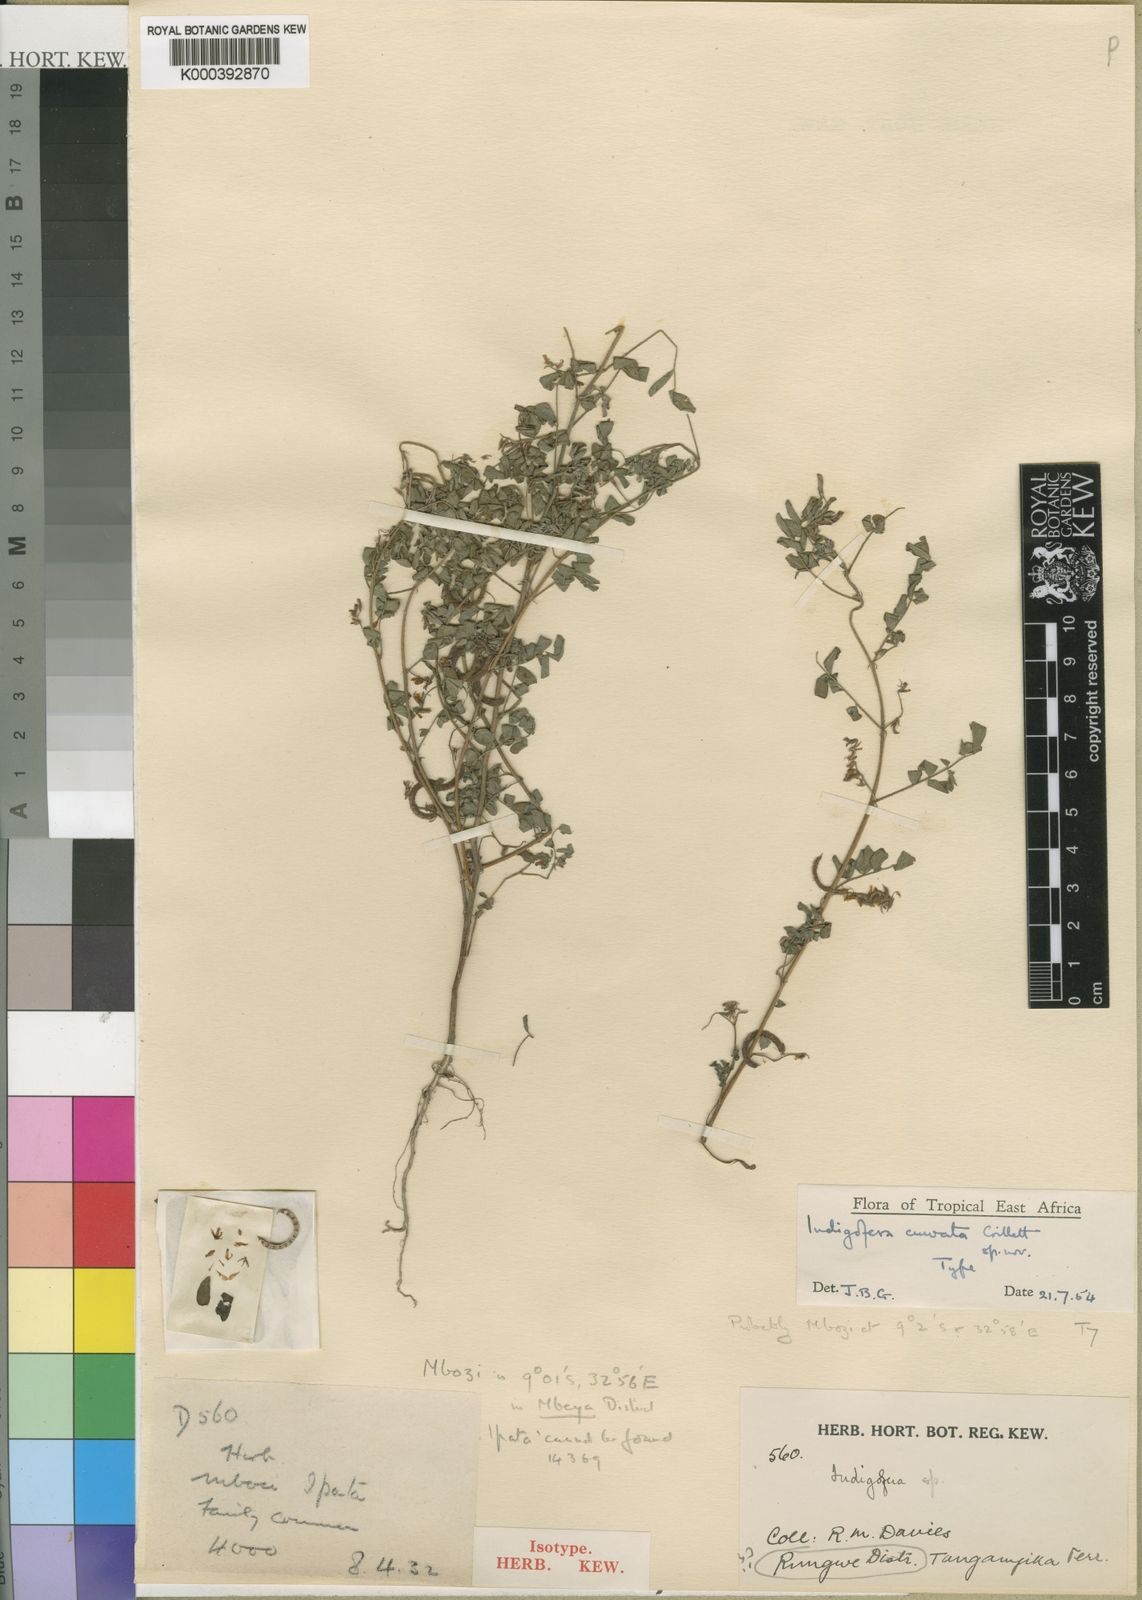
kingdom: Plantae
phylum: Tracheophyta
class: Magnoliopsida
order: Fabales
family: Fabaceae
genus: Indigofera
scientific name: Indigofera curvata
